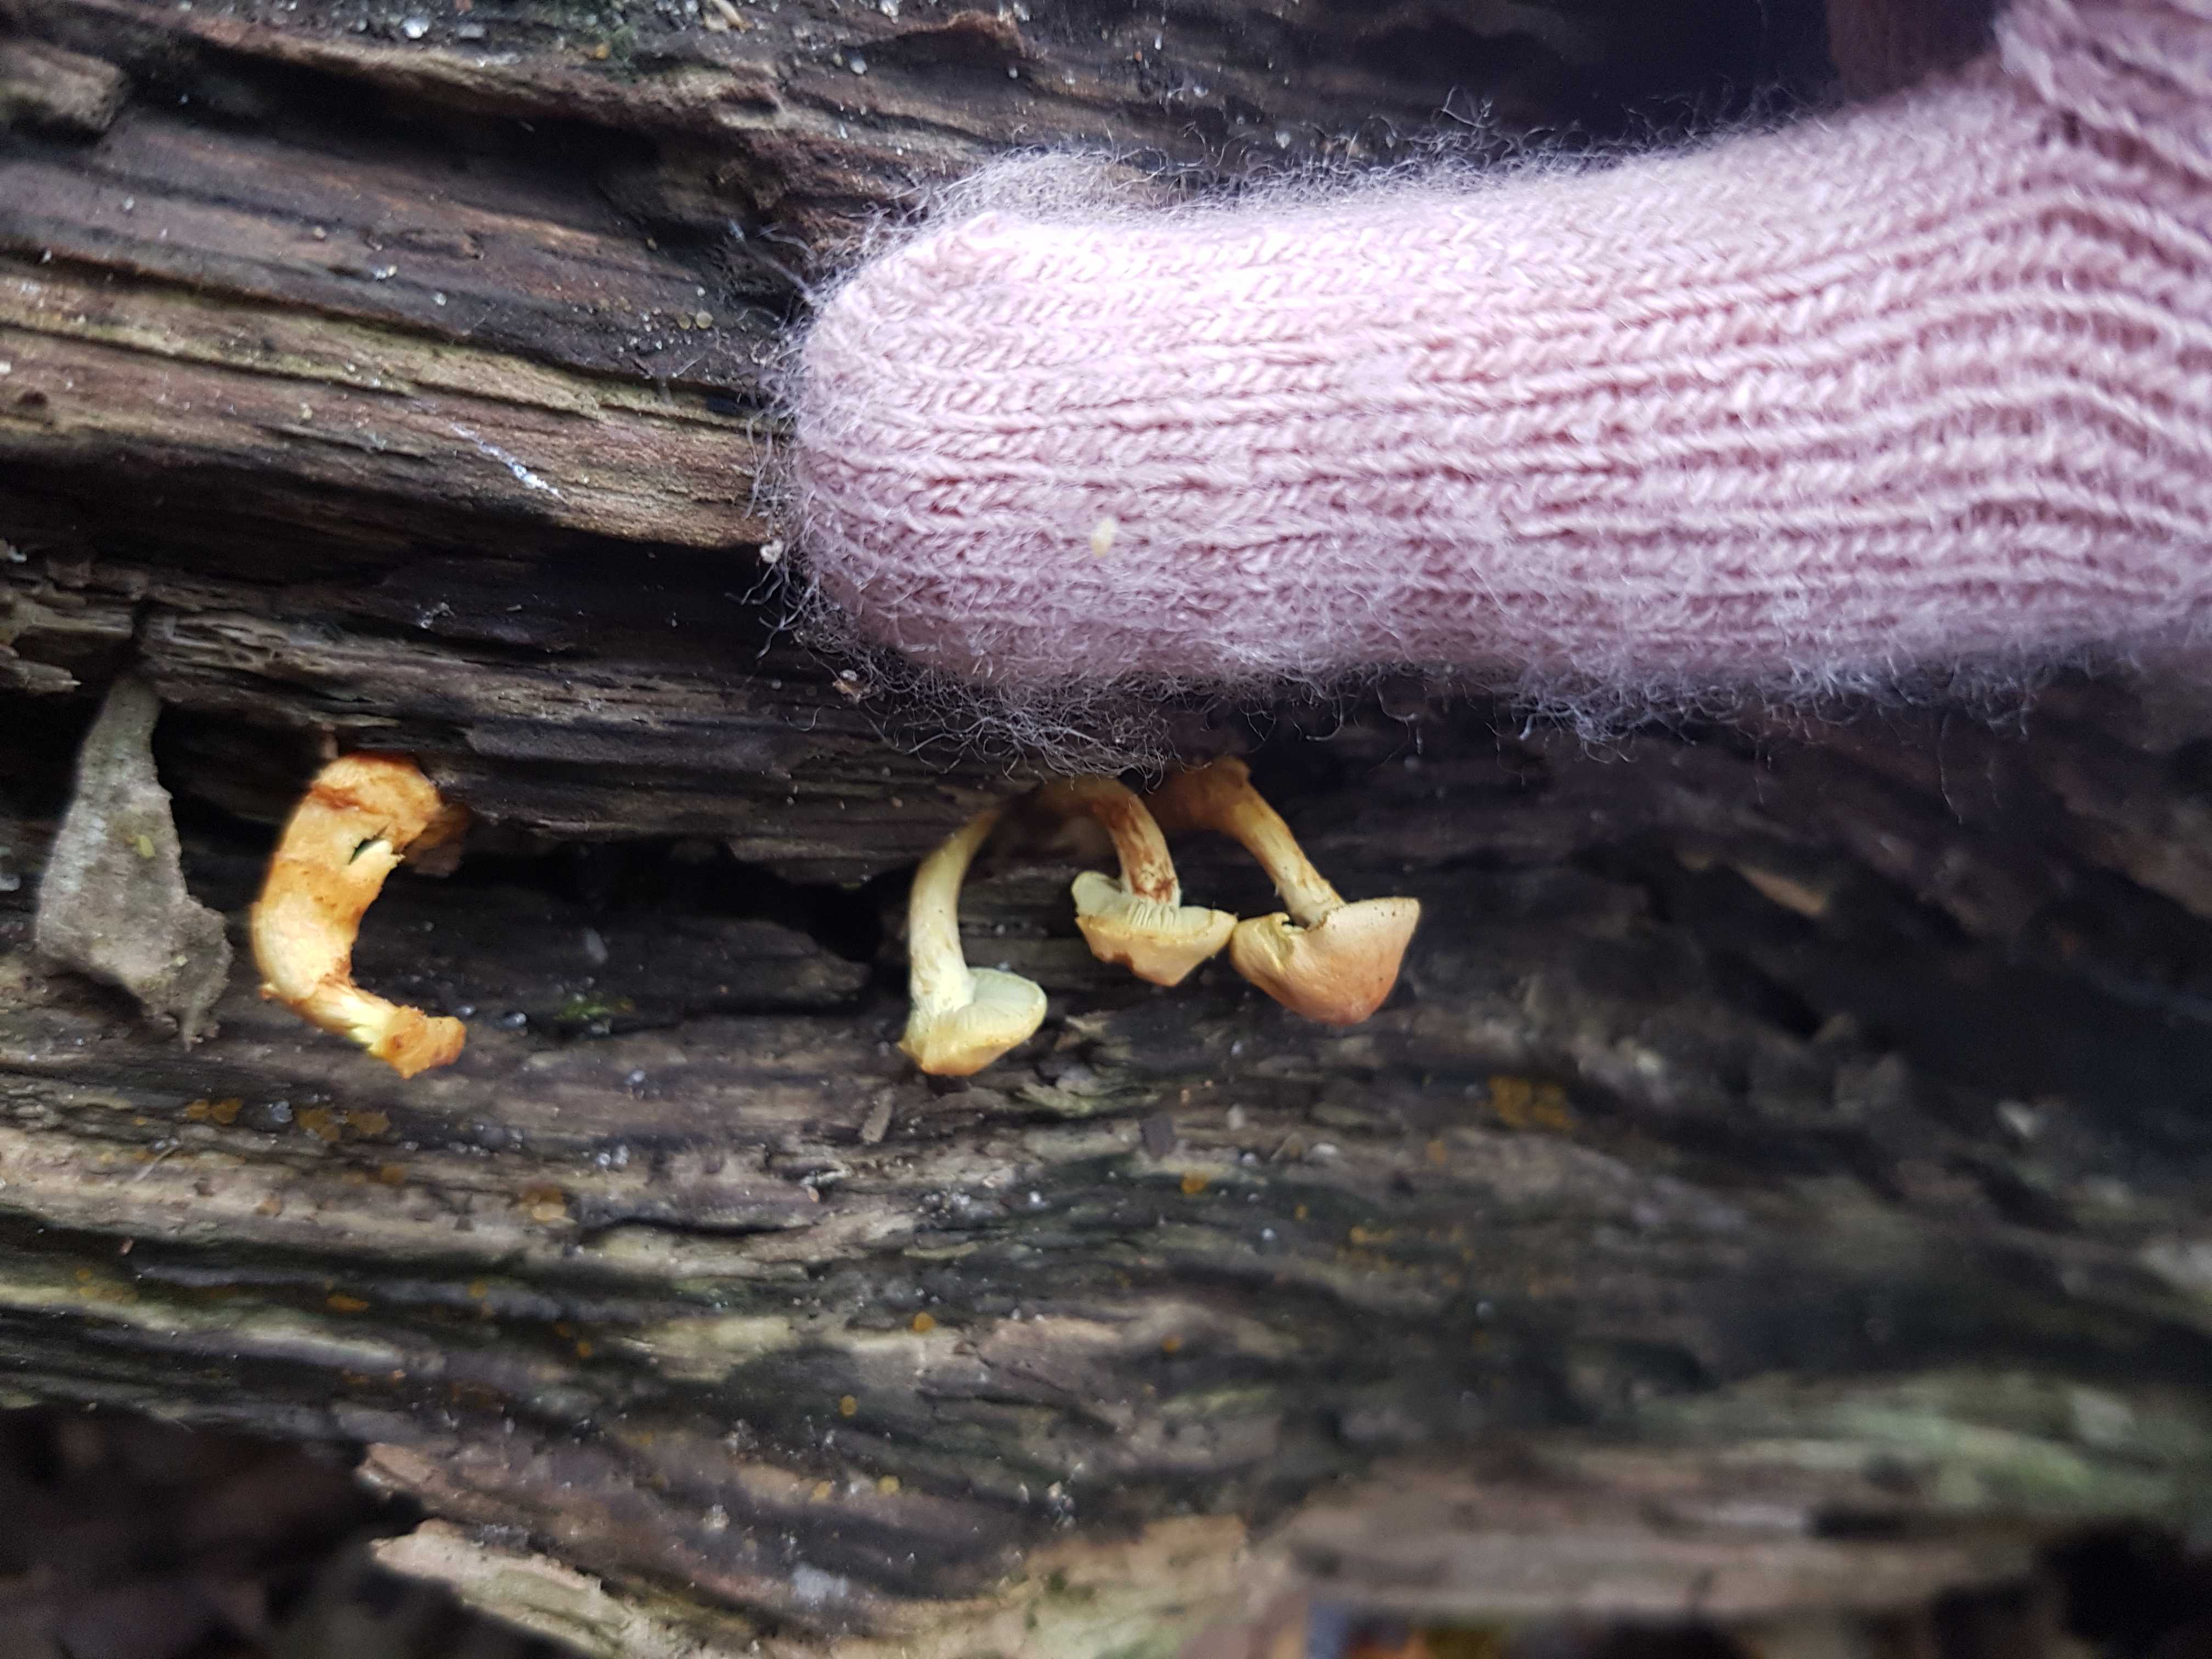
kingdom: Fungi
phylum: Basidiomycota
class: Agaricomycetes
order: Agaricales
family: Strophariaceae
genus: Hypholoma
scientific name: Hypholoma fasciculare
